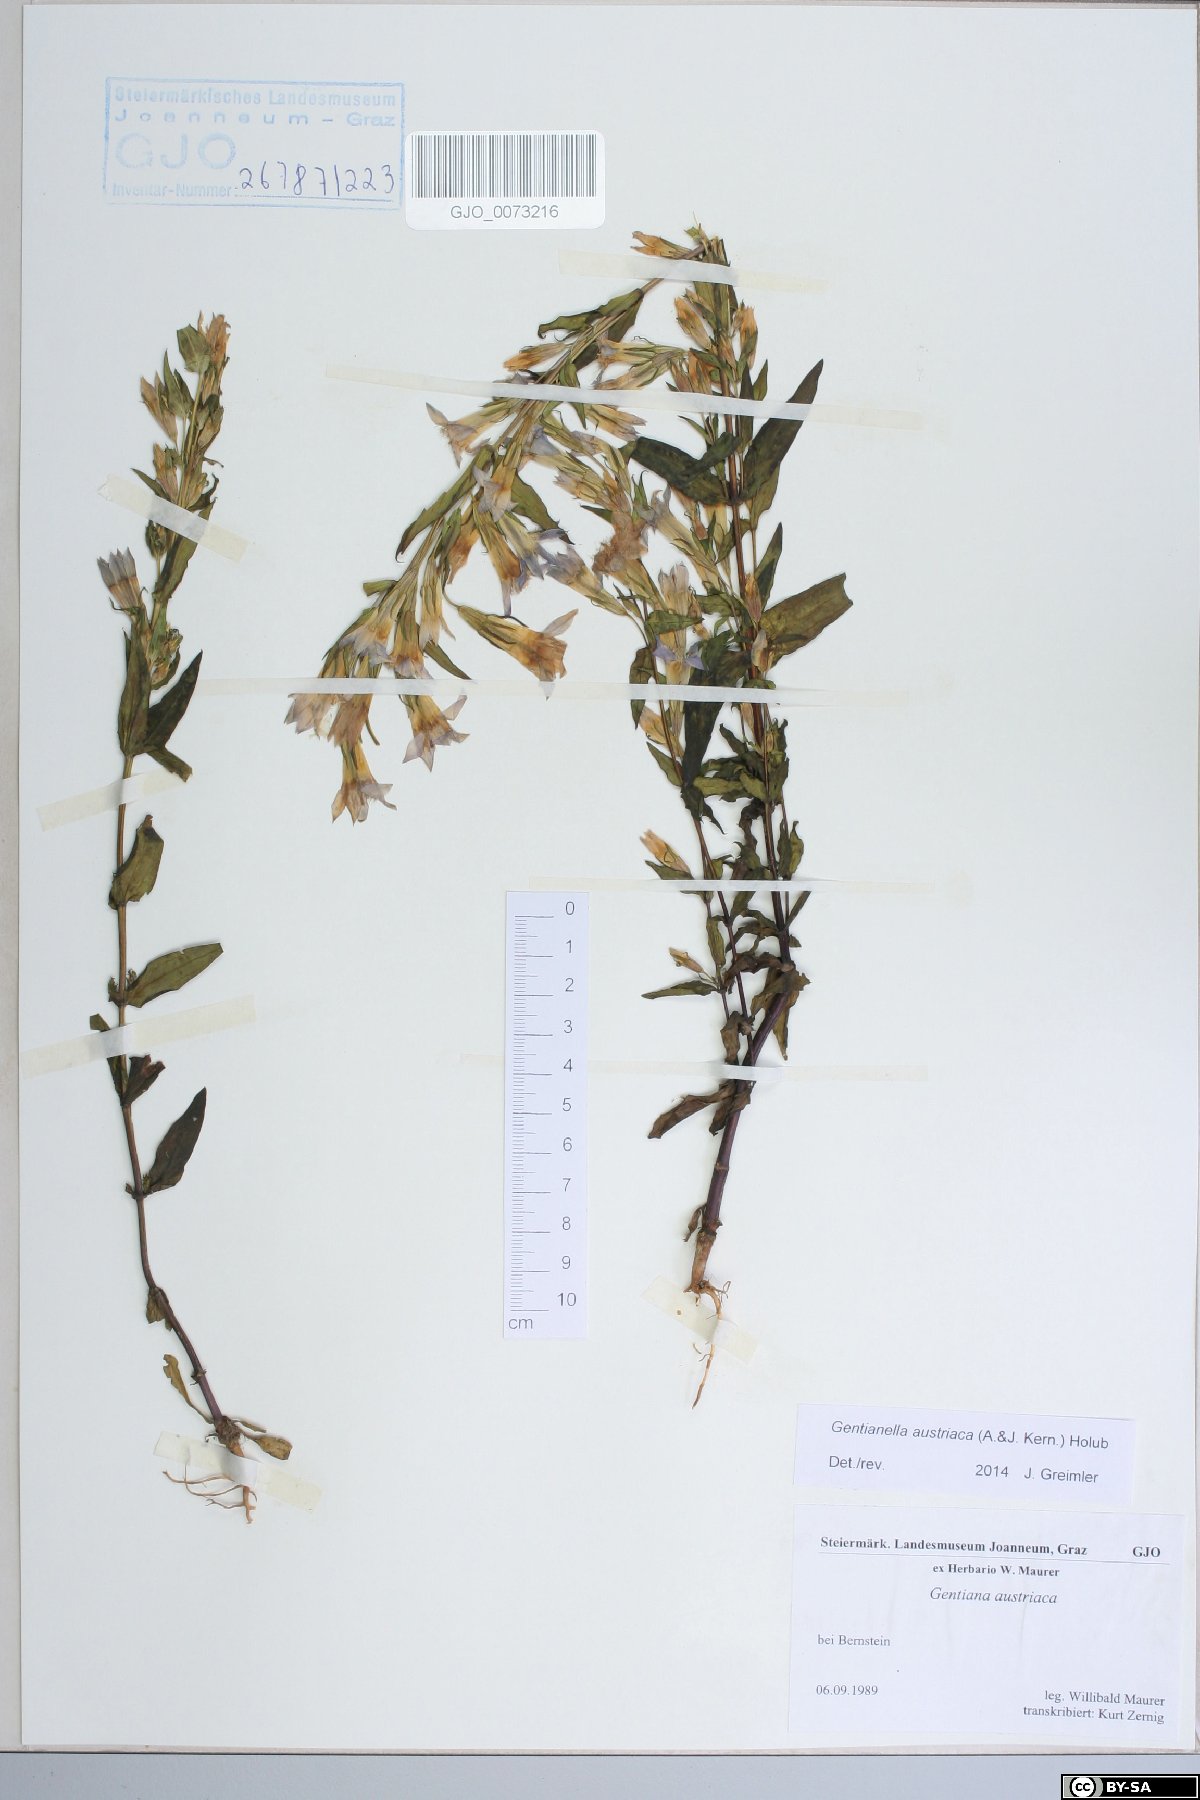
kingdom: Plantae
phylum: Tracheophyta
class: Magnoliopsida
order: Gentianales
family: Gentianaceae
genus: Gentianella
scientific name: Gentianella austriaca
